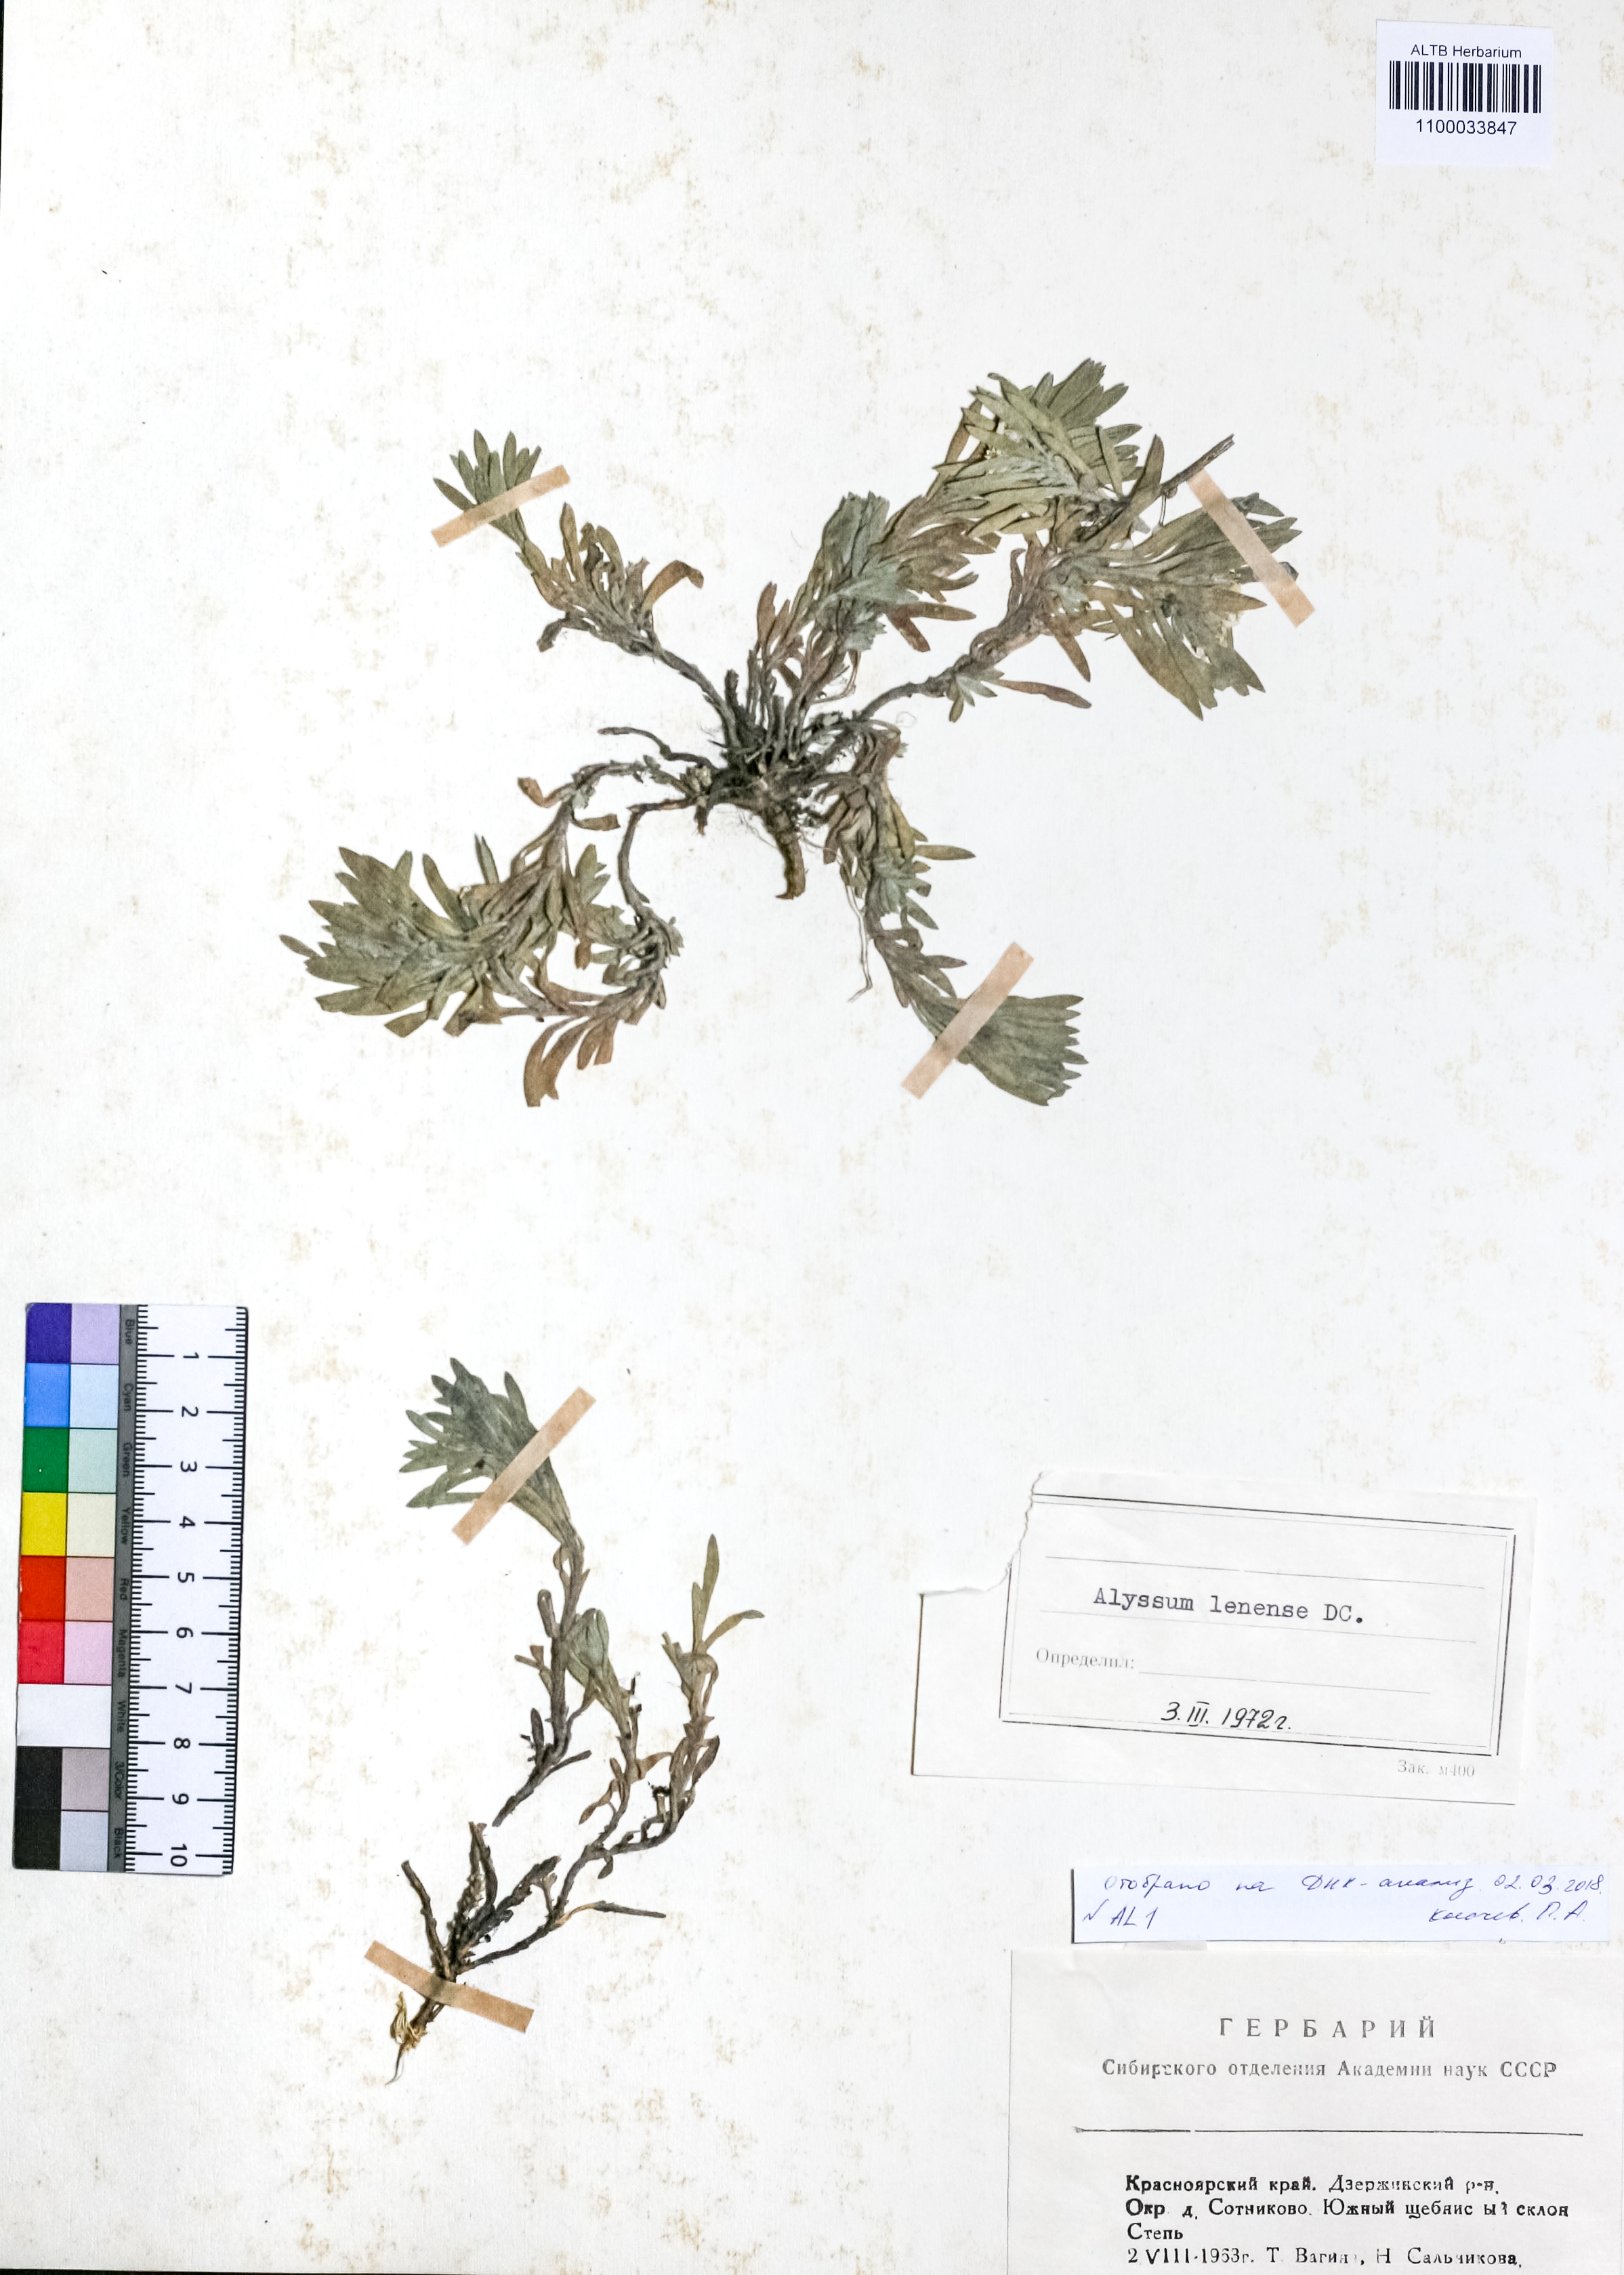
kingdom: Plantae
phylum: Tracheophyta
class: Magnoliopsida
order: Brassicales
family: Brassicaceae
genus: Alyssum
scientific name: Alyssum lenense
